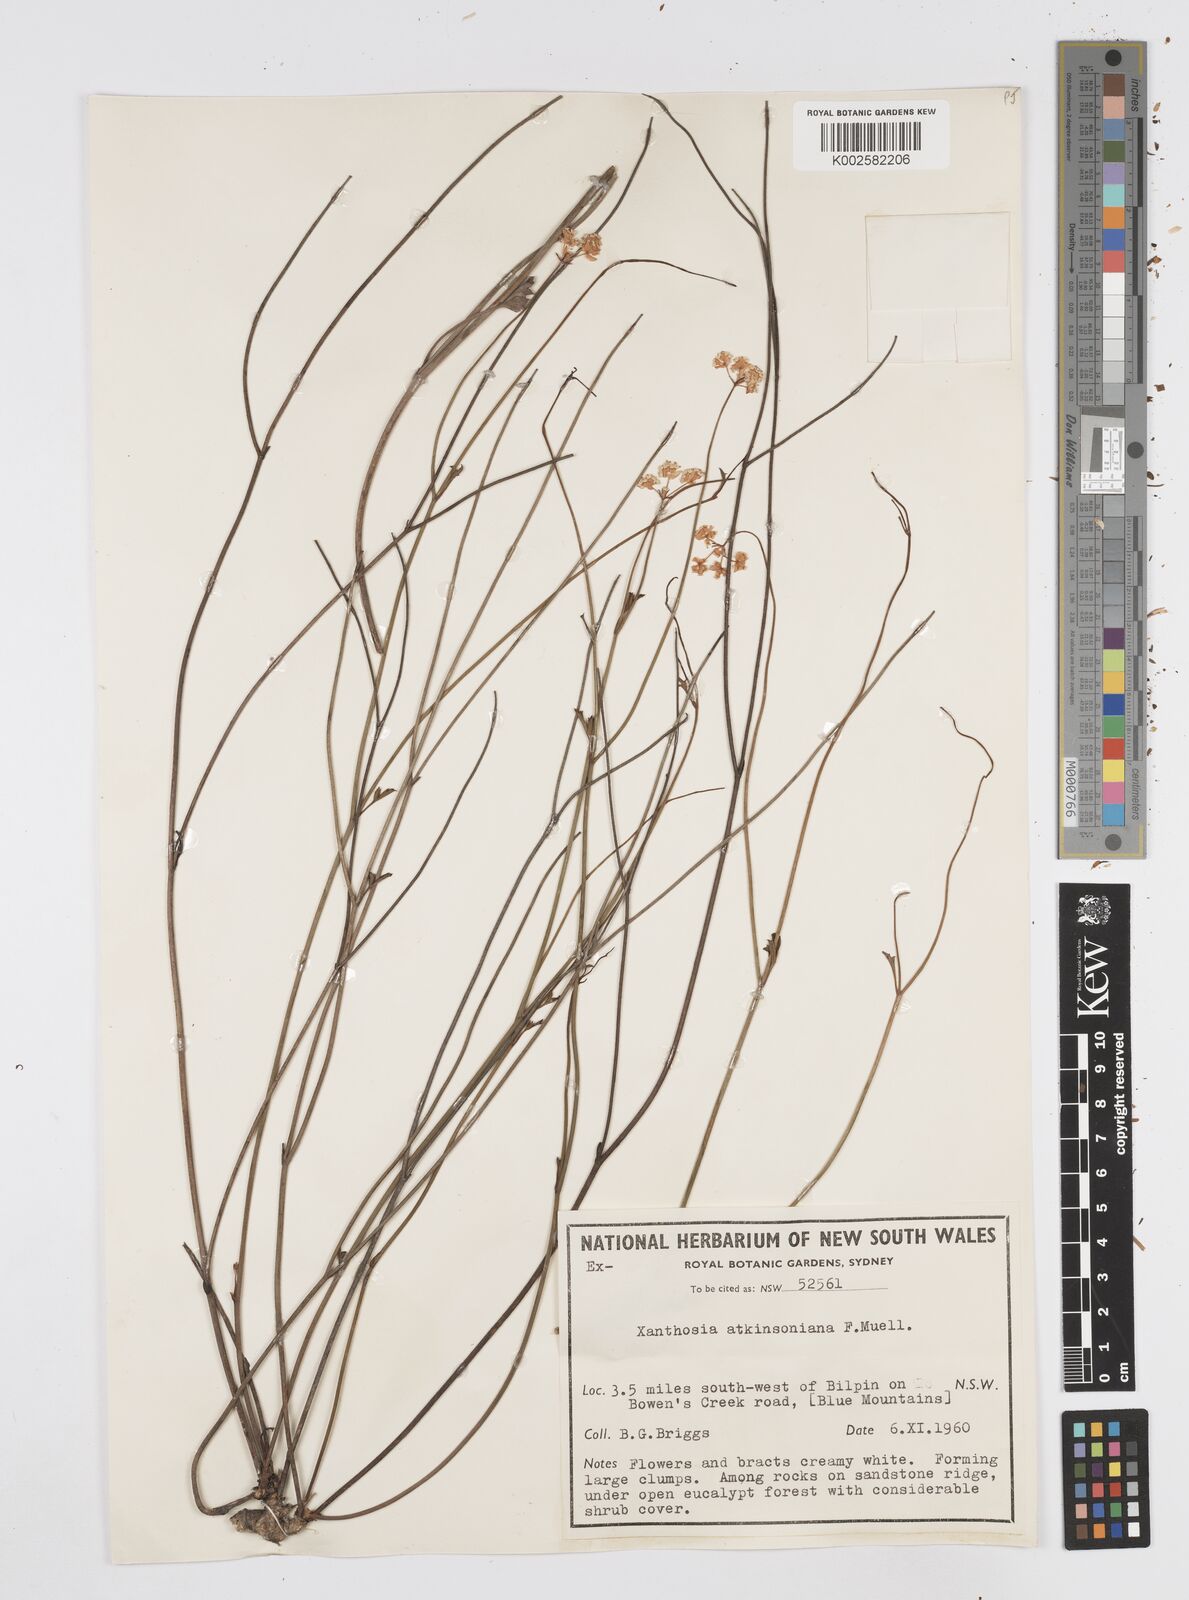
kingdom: Plantae
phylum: Tracheophyta
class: Magnoliopsida
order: Apiales
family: Apiaceae
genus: Xanthosia
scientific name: Xanthosia atkinsoniana
